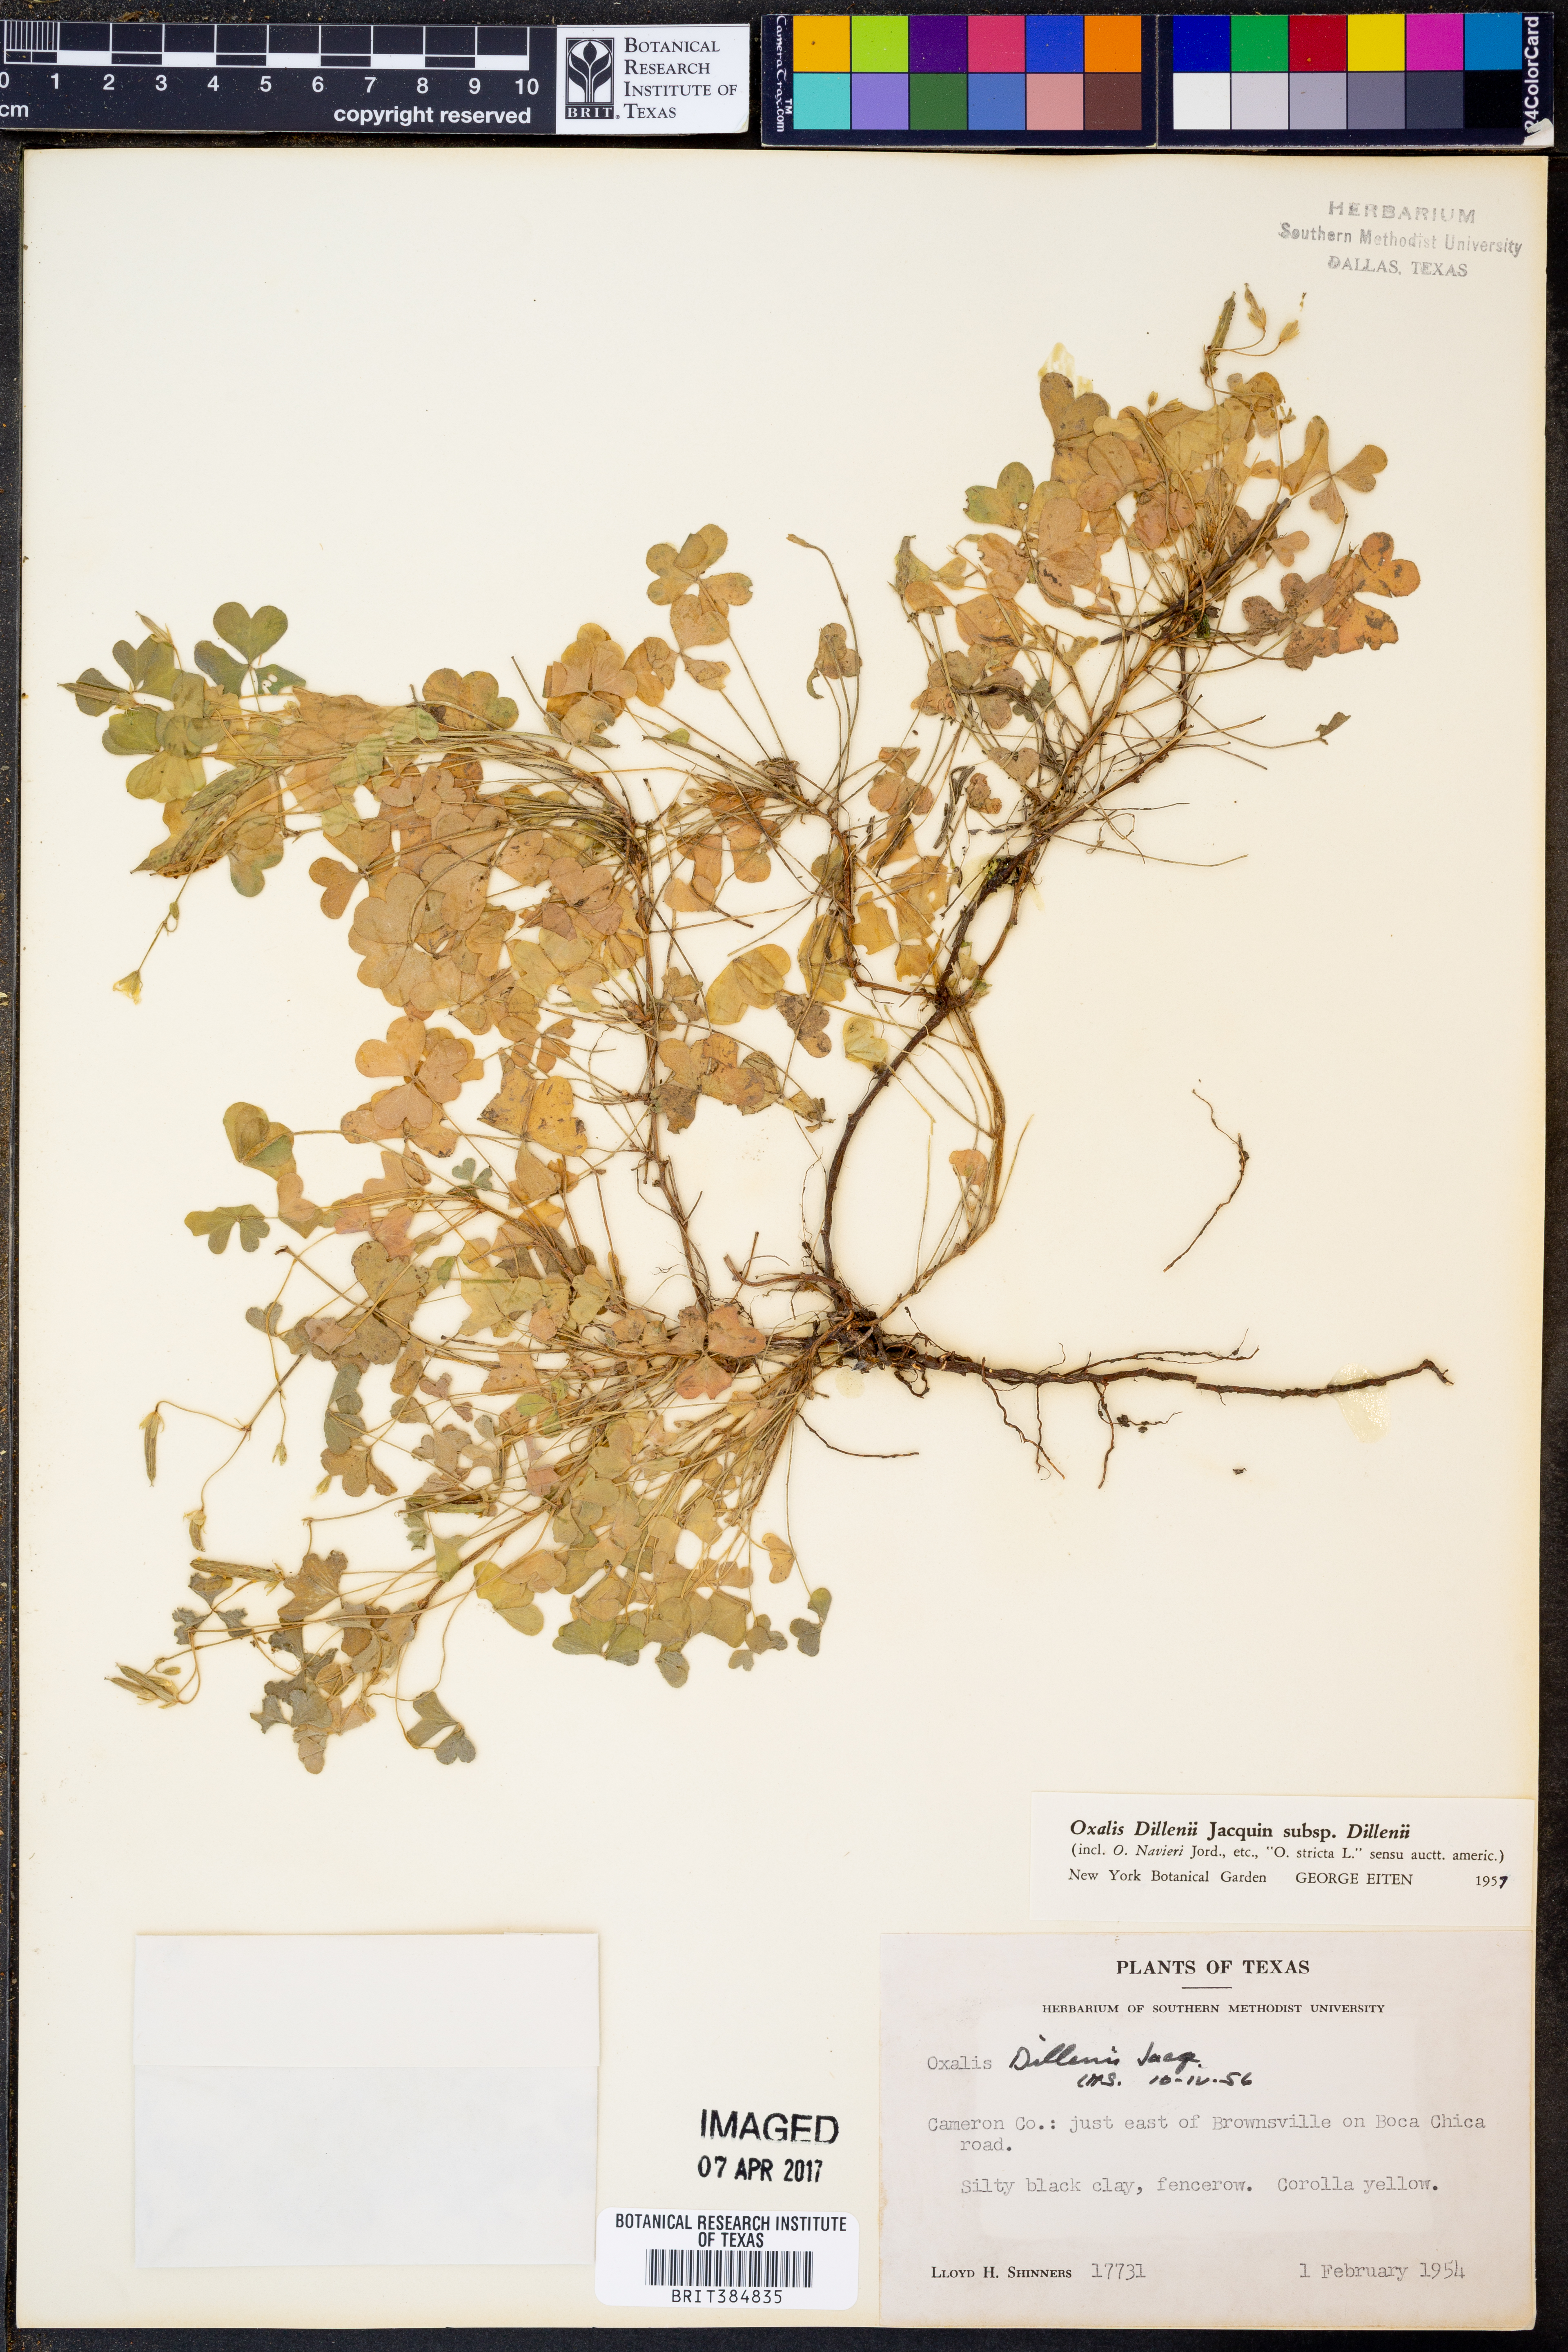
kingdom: Plantae
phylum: Tracheophyta
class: Magnoliopsida
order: Oxalidales
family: Oxalidaceae
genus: Oxalis
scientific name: Oxalis dillenii
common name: Sussex yellow-sorrel
